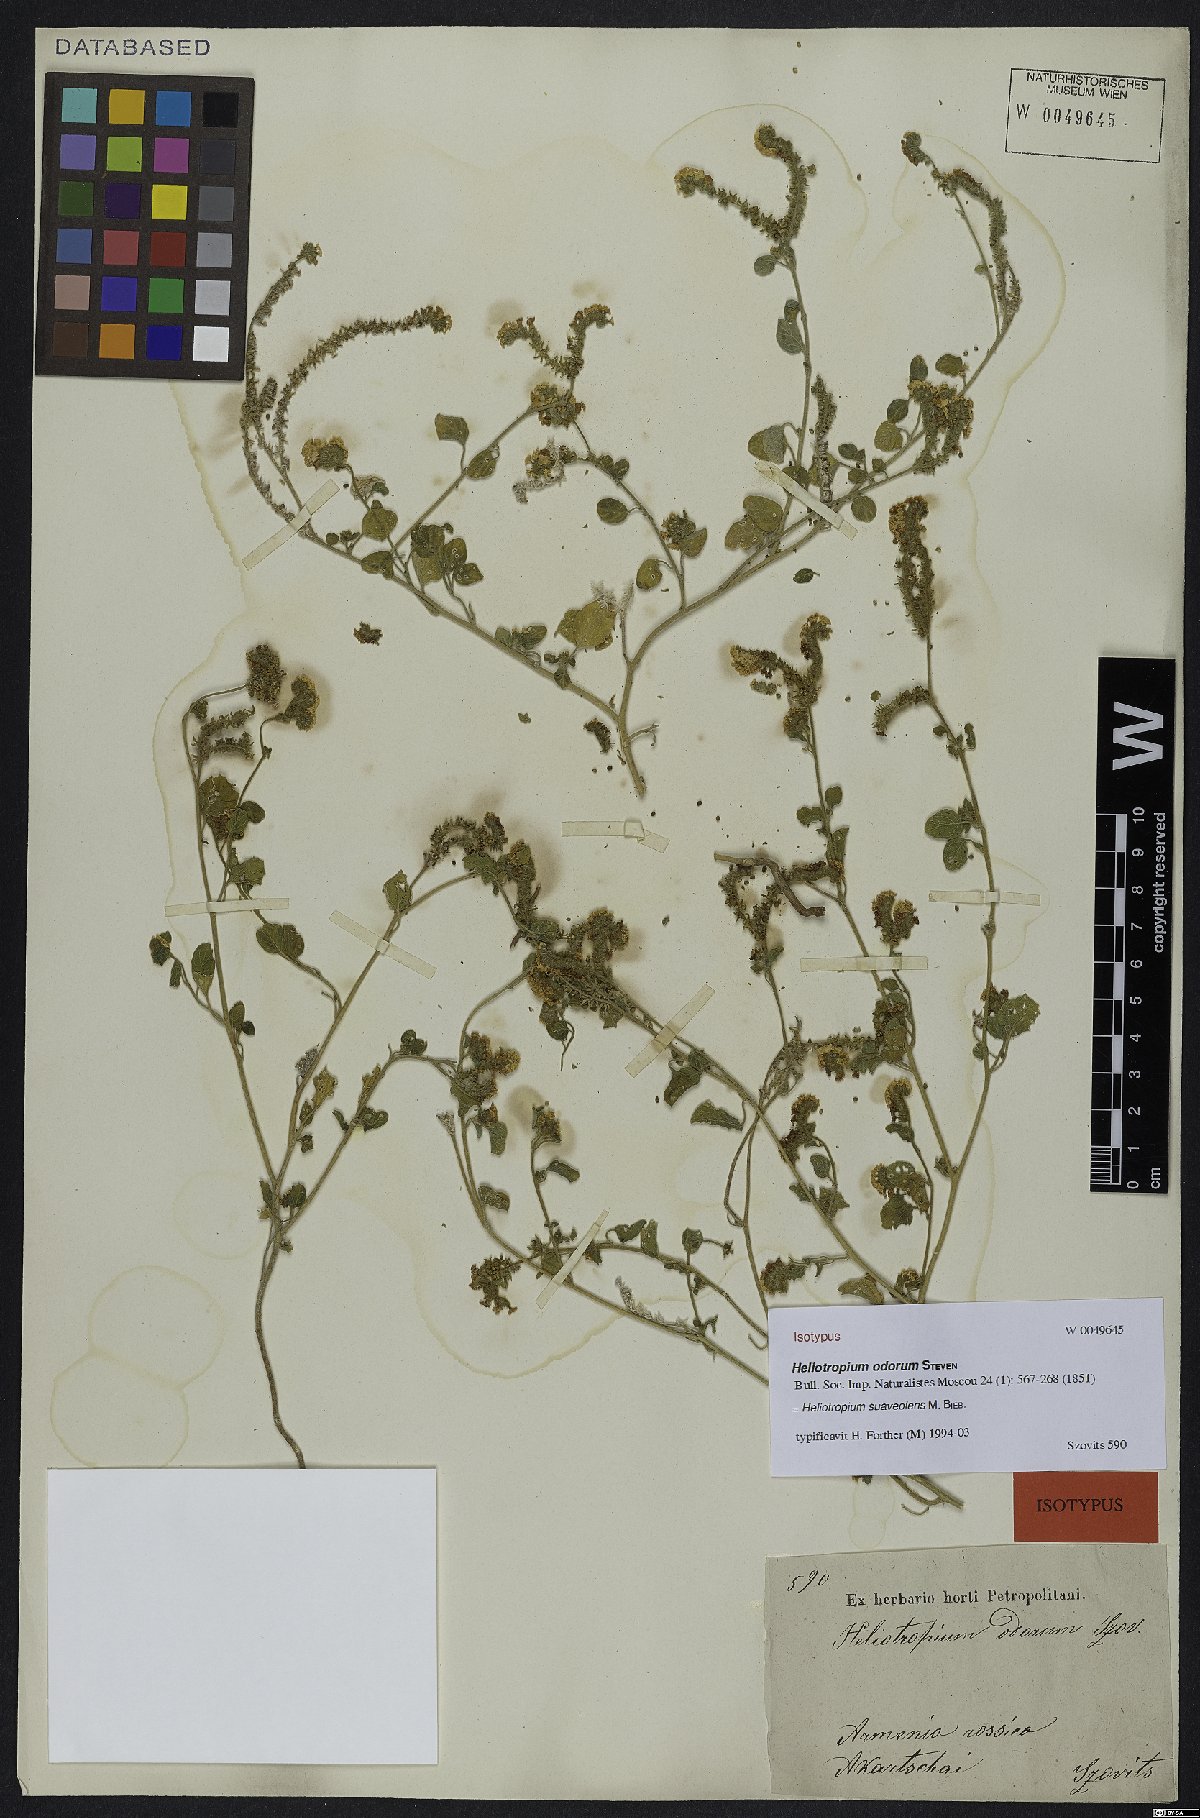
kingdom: Plantae
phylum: Tracheophyta
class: Magnoliopsida
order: Boraginales
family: Heliotropiaceae
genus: Heliotropium
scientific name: Heliotropium suaveolens
